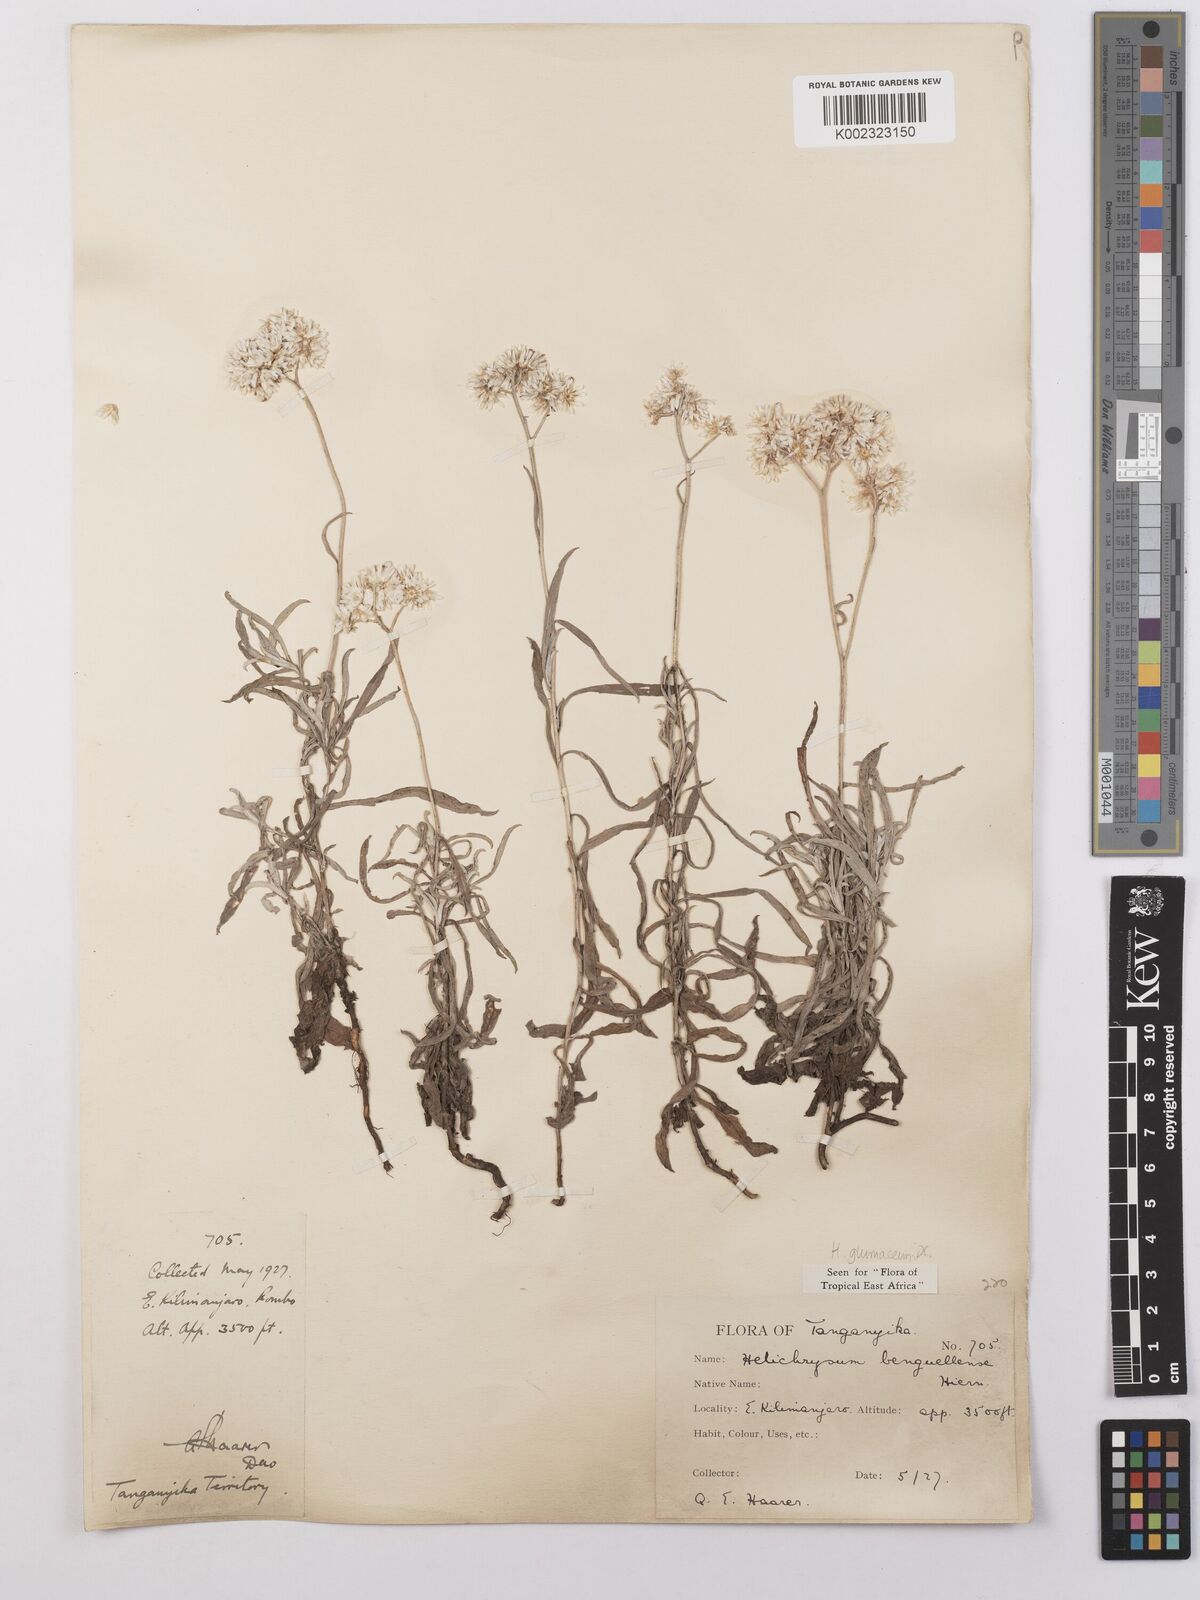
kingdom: Plantae
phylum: Tracheophyta
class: Magnoliopsida
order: Asterales
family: Asteraceae
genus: Helichrysum
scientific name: Helichrysum glumaceum
